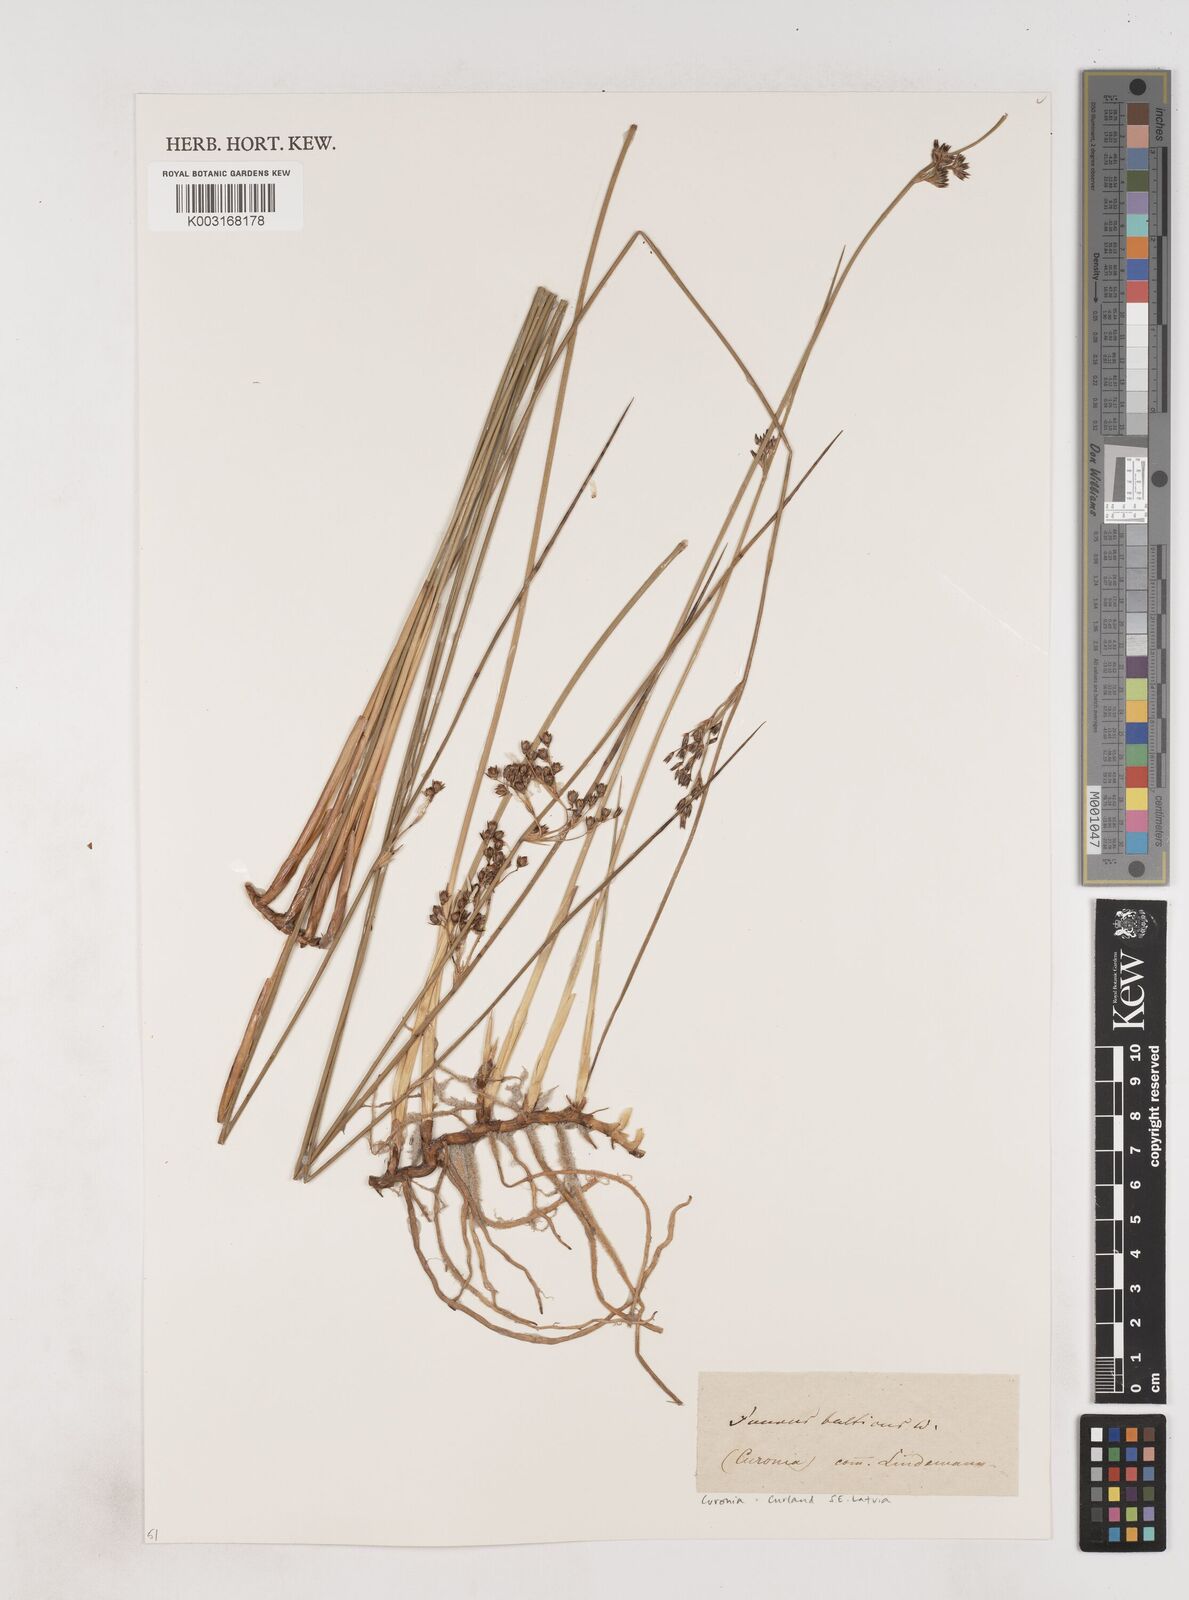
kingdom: Plantae
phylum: Tracheophyta
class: Liliopsida
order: Poales
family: Juncaceae
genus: Juncus
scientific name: Juncus balticus
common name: Baltic rush
